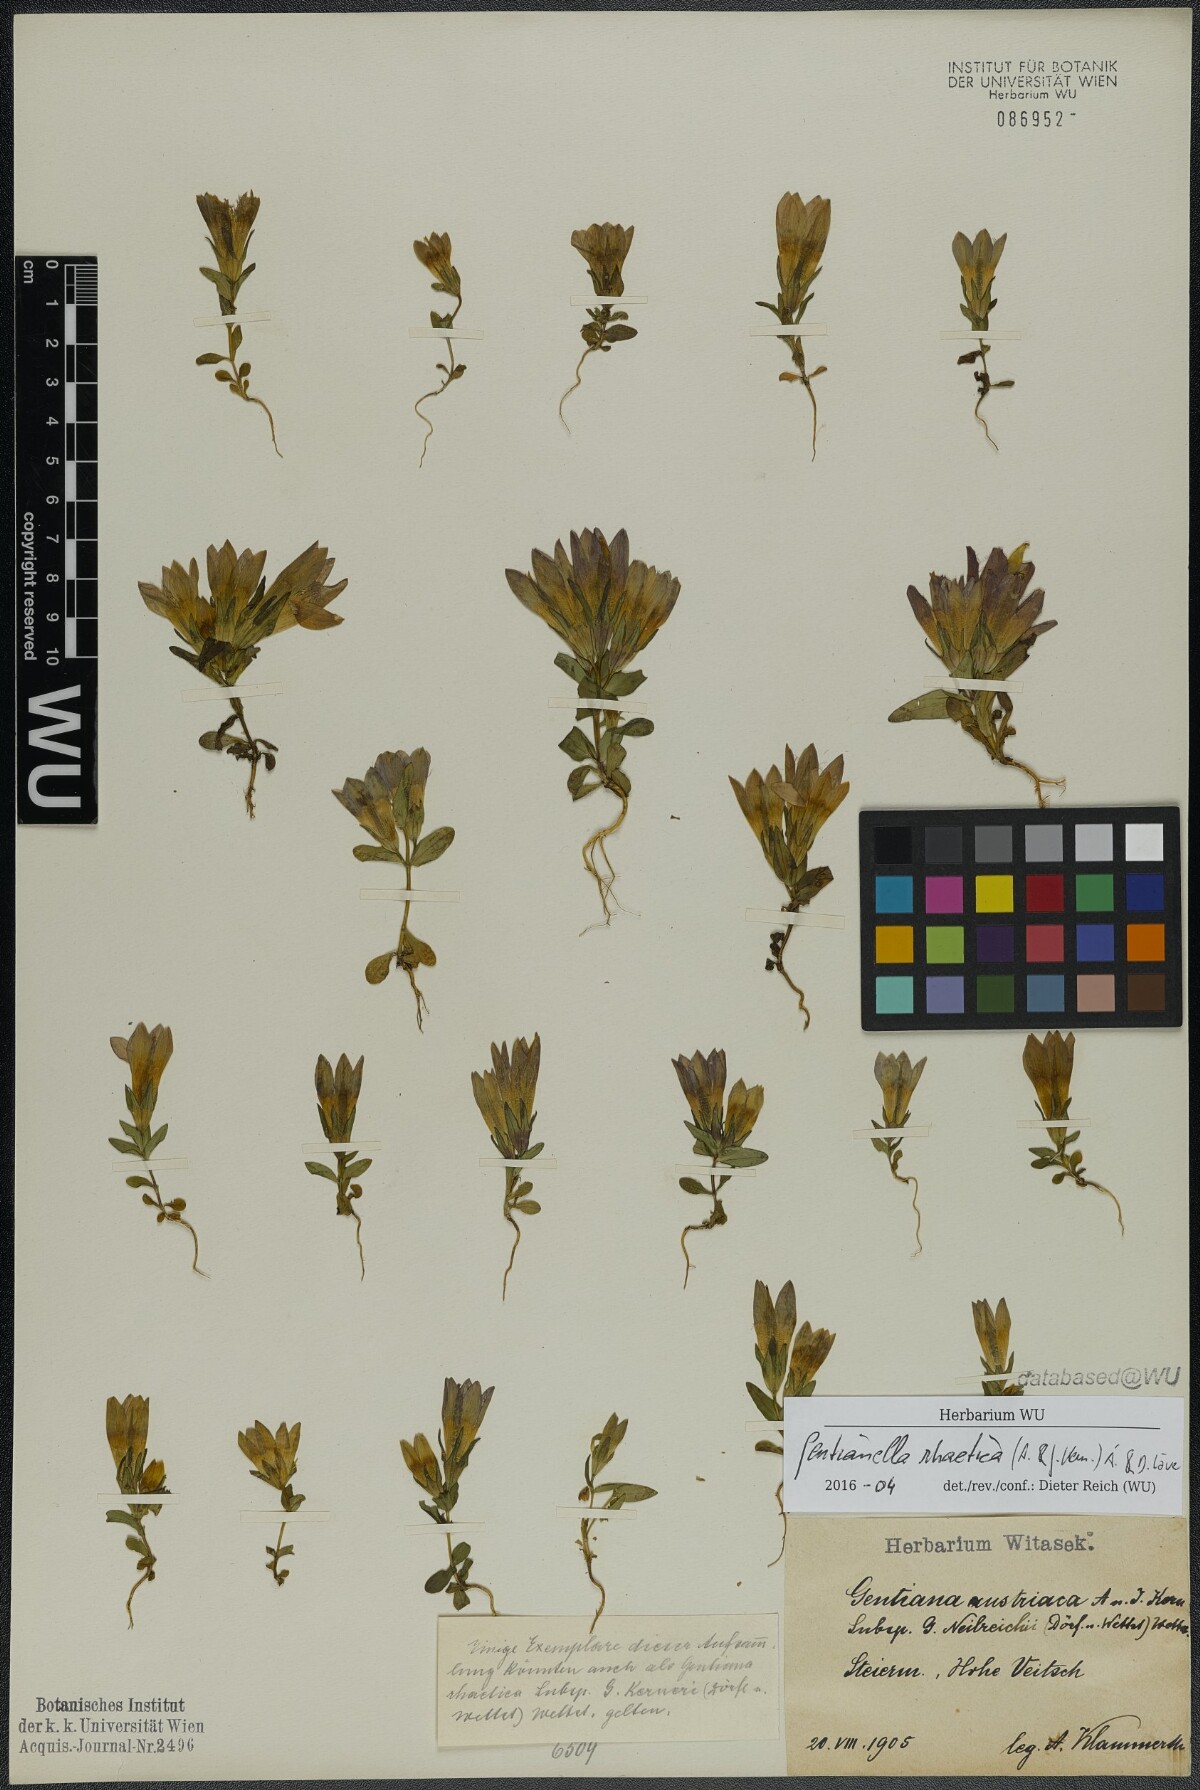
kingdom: Plantae
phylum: Tracheophyta
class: Magnoliopsida
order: Gentianales
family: Gentianaceae
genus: Gentianella
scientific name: Gentianella rhaetica
